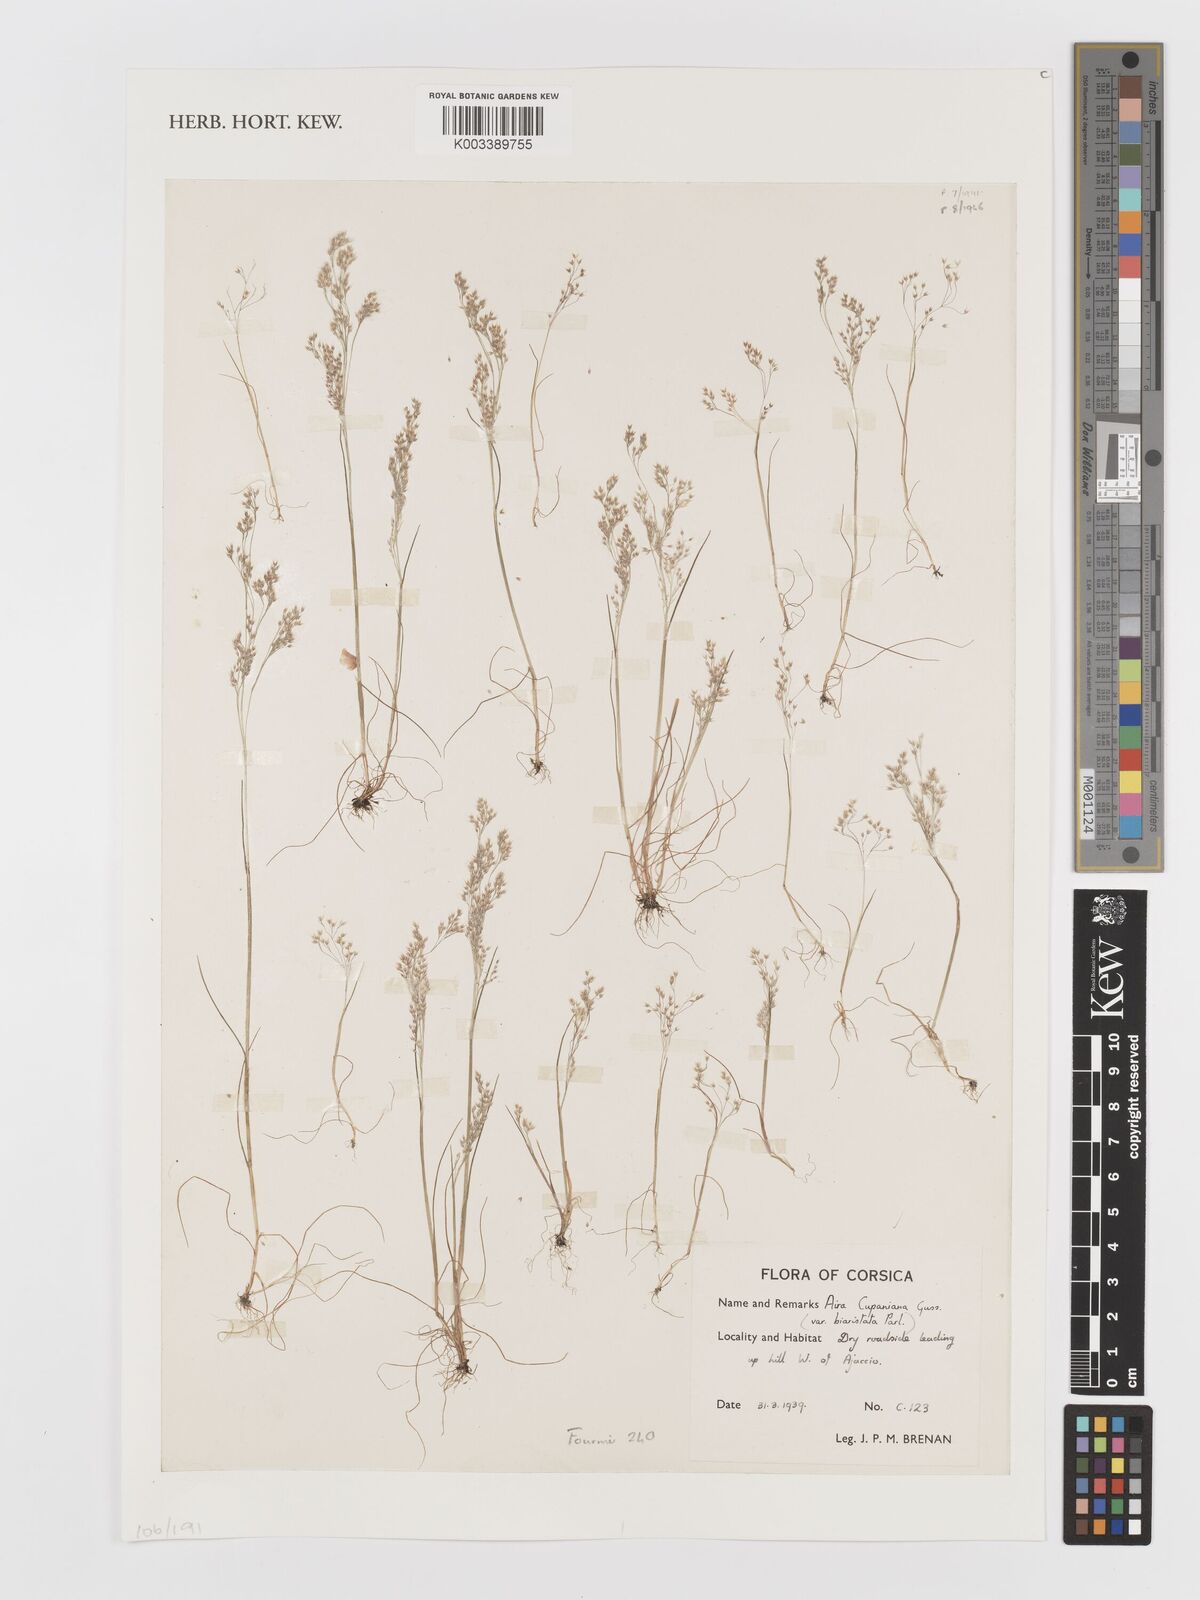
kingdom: Plantae
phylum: Tracheophyta
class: Liliopsida
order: Poales
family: Poaceae
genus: Aira
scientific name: Aira cupaniana
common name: Silver hairgrass
